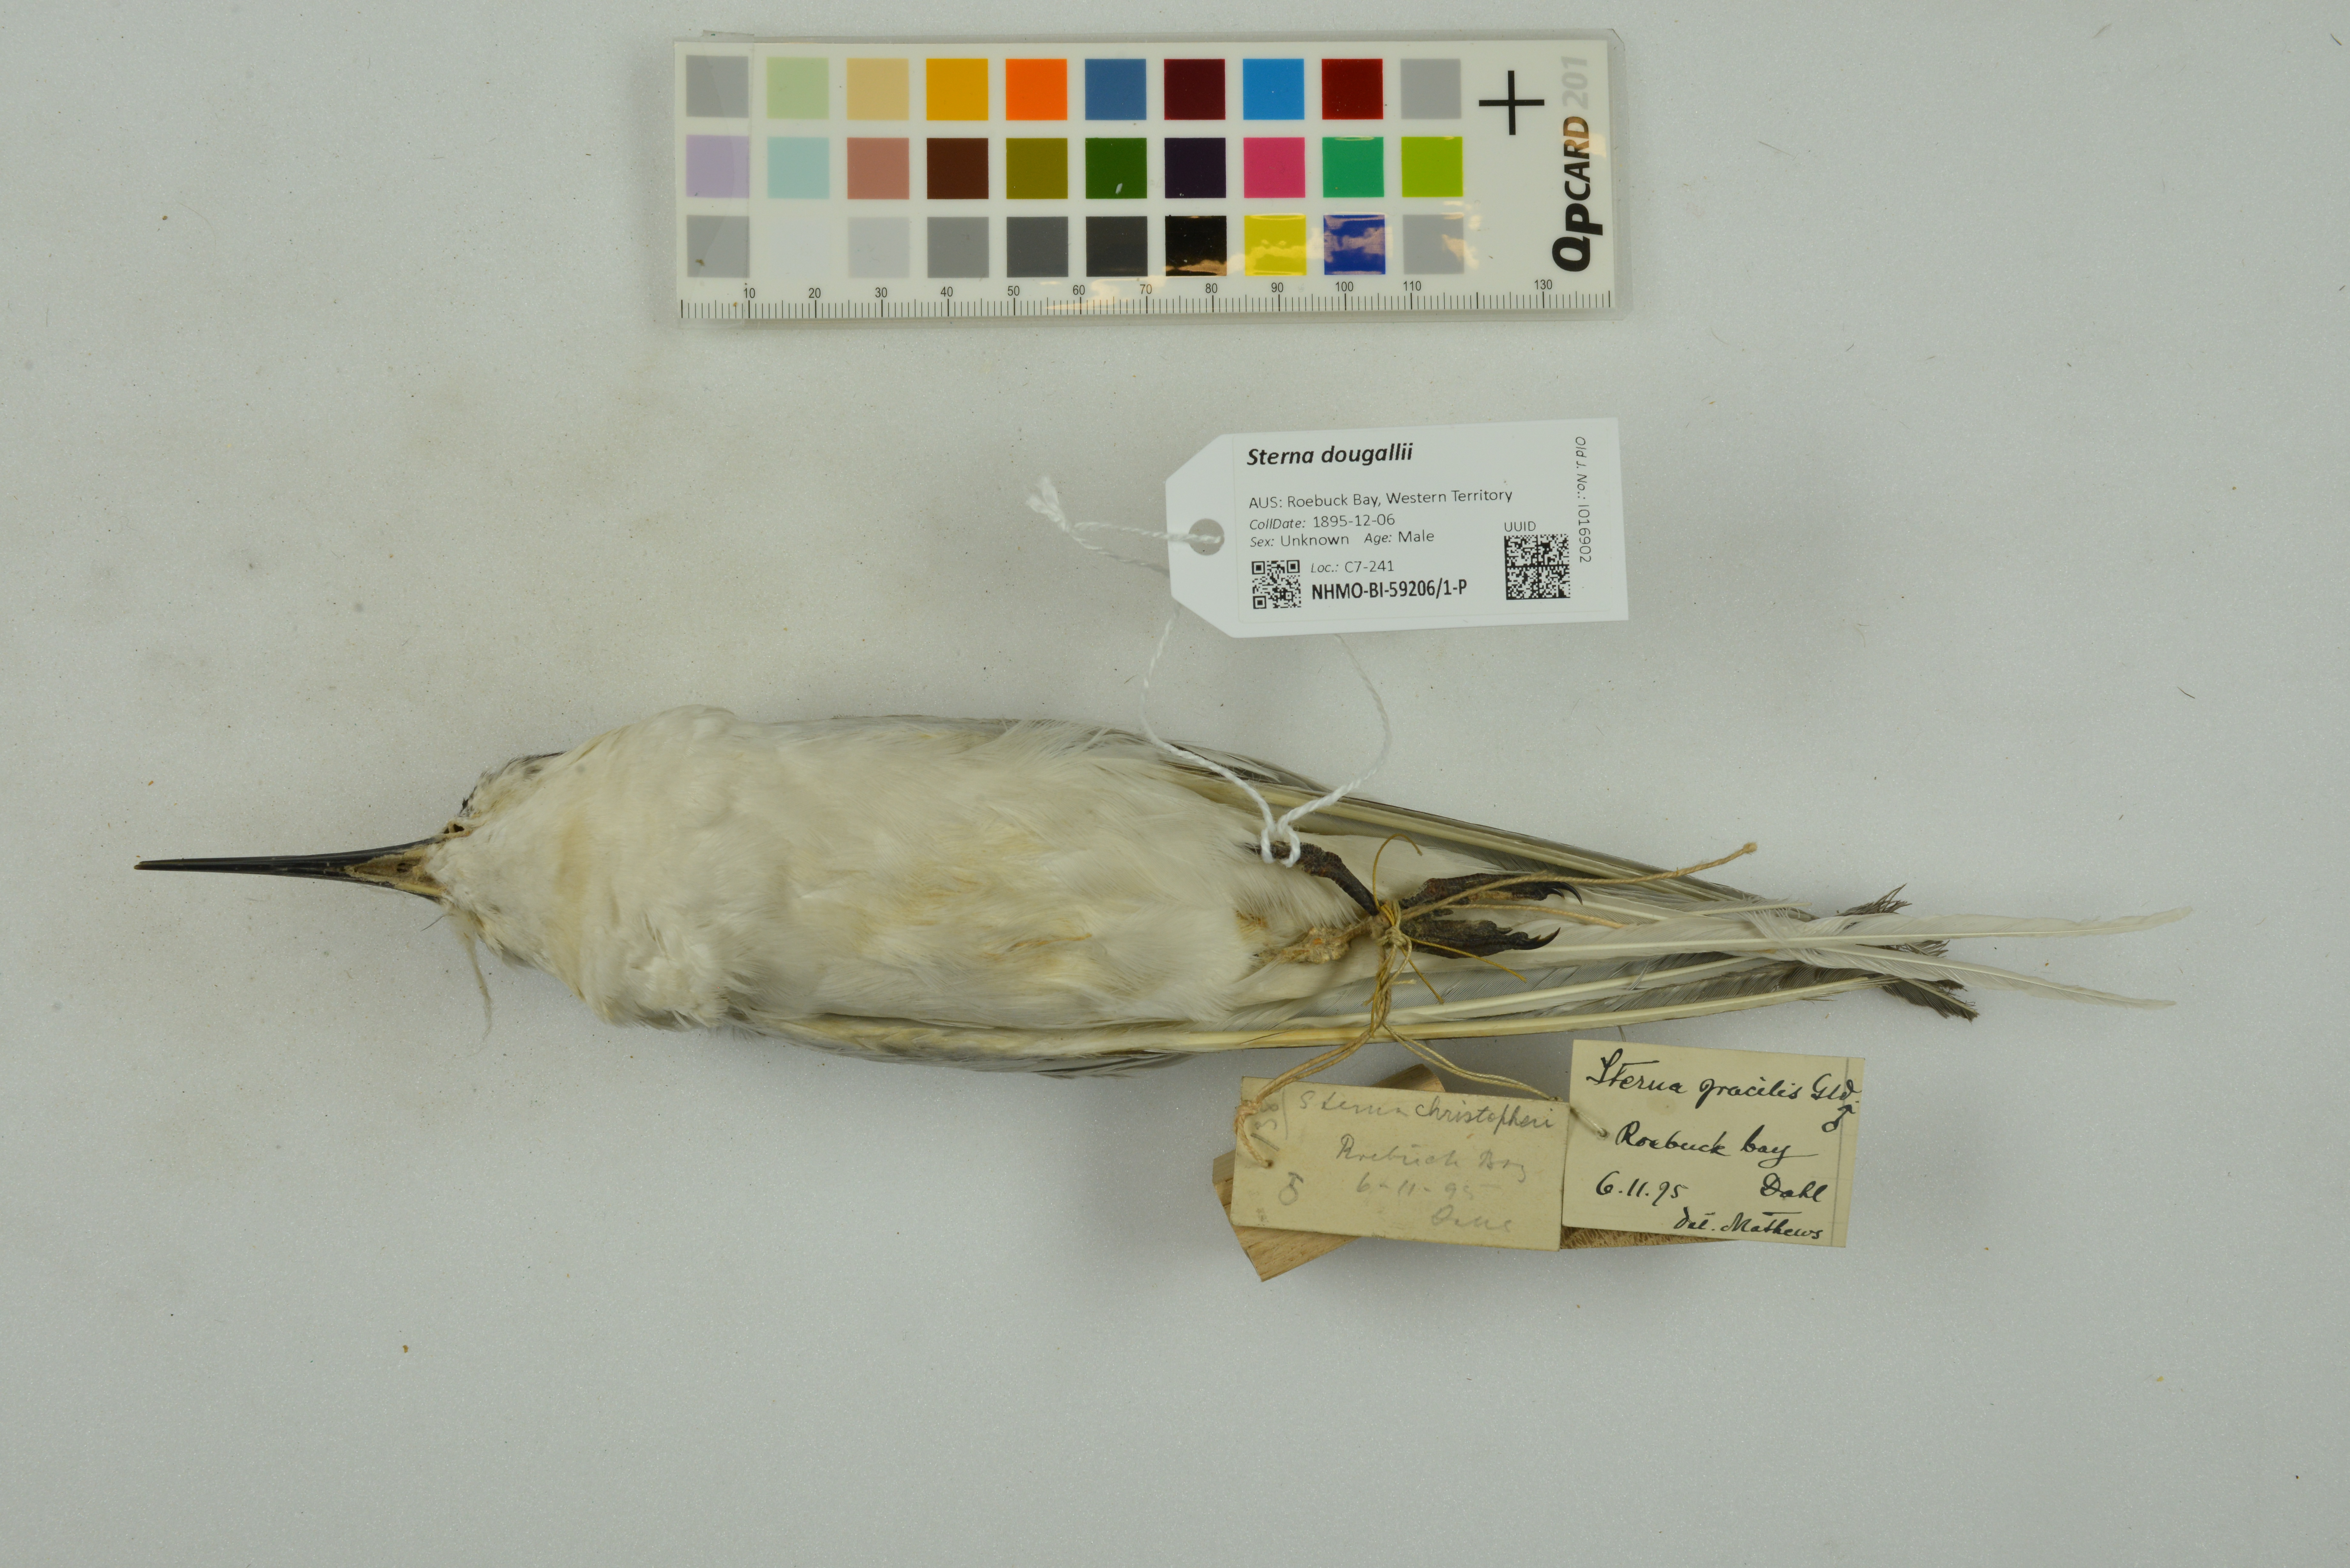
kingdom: Animalia
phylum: Chordata
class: Aves
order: Charadriiformes
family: Laridae
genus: Sterna
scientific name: Sterna dougallii
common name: Roseate tern
